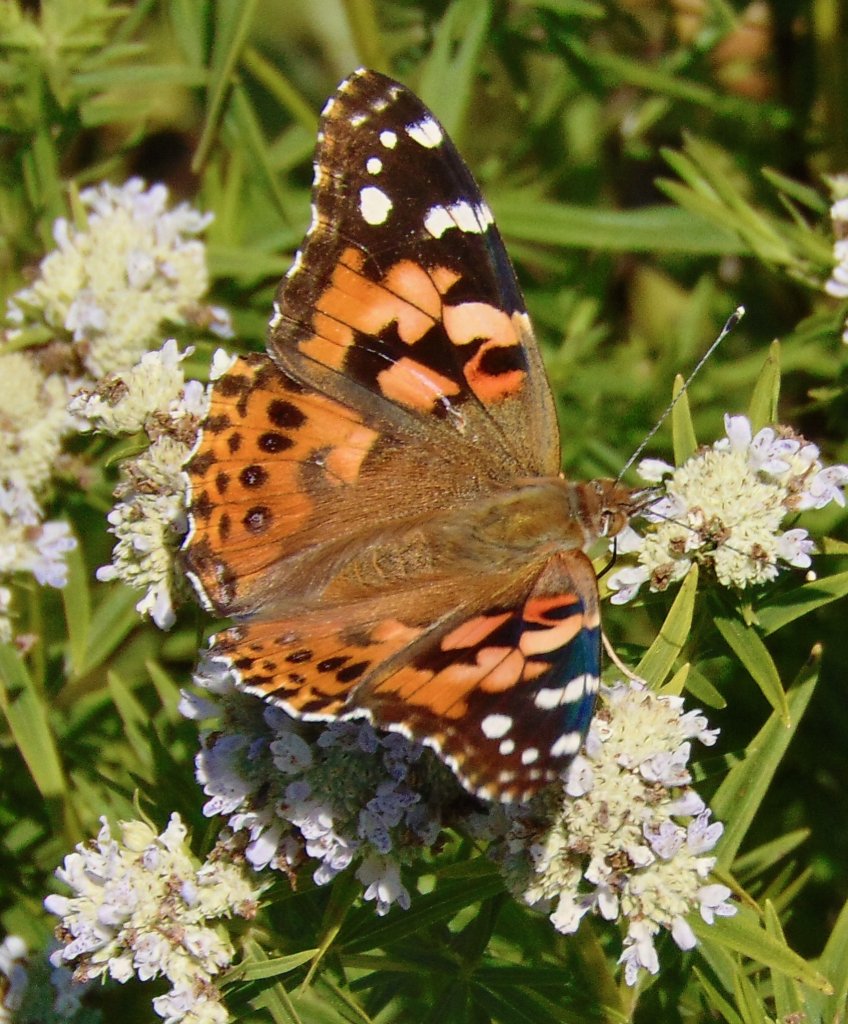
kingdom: Animalia
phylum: Arthropoda
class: Insecta
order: Lepidoptera
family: Nymphalidae
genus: Vanessa
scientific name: Vanessa cardui
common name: Painted Lady
